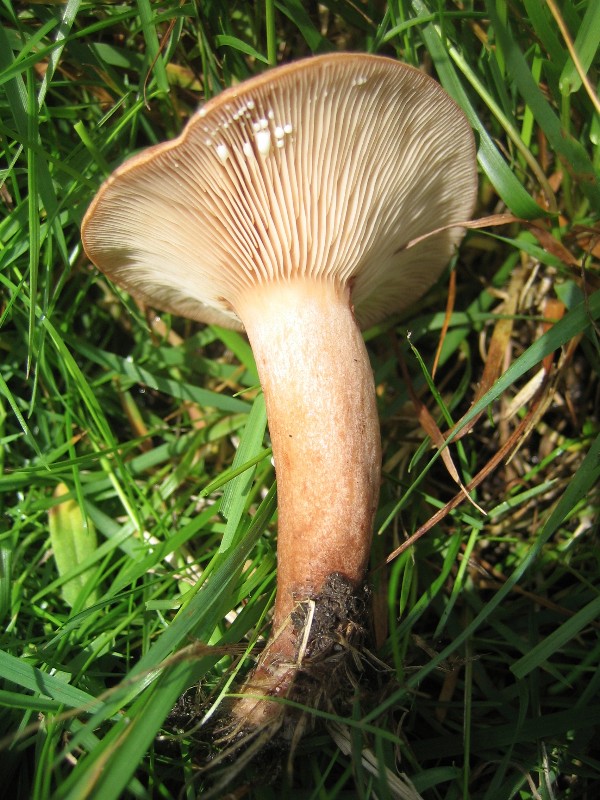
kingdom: Fungi
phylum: Basidiomycota
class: Agaricomycetes
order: Russulales
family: Russulaceae
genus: Lactarius
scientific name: Lactarius quietus
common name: ege-mælkehat
